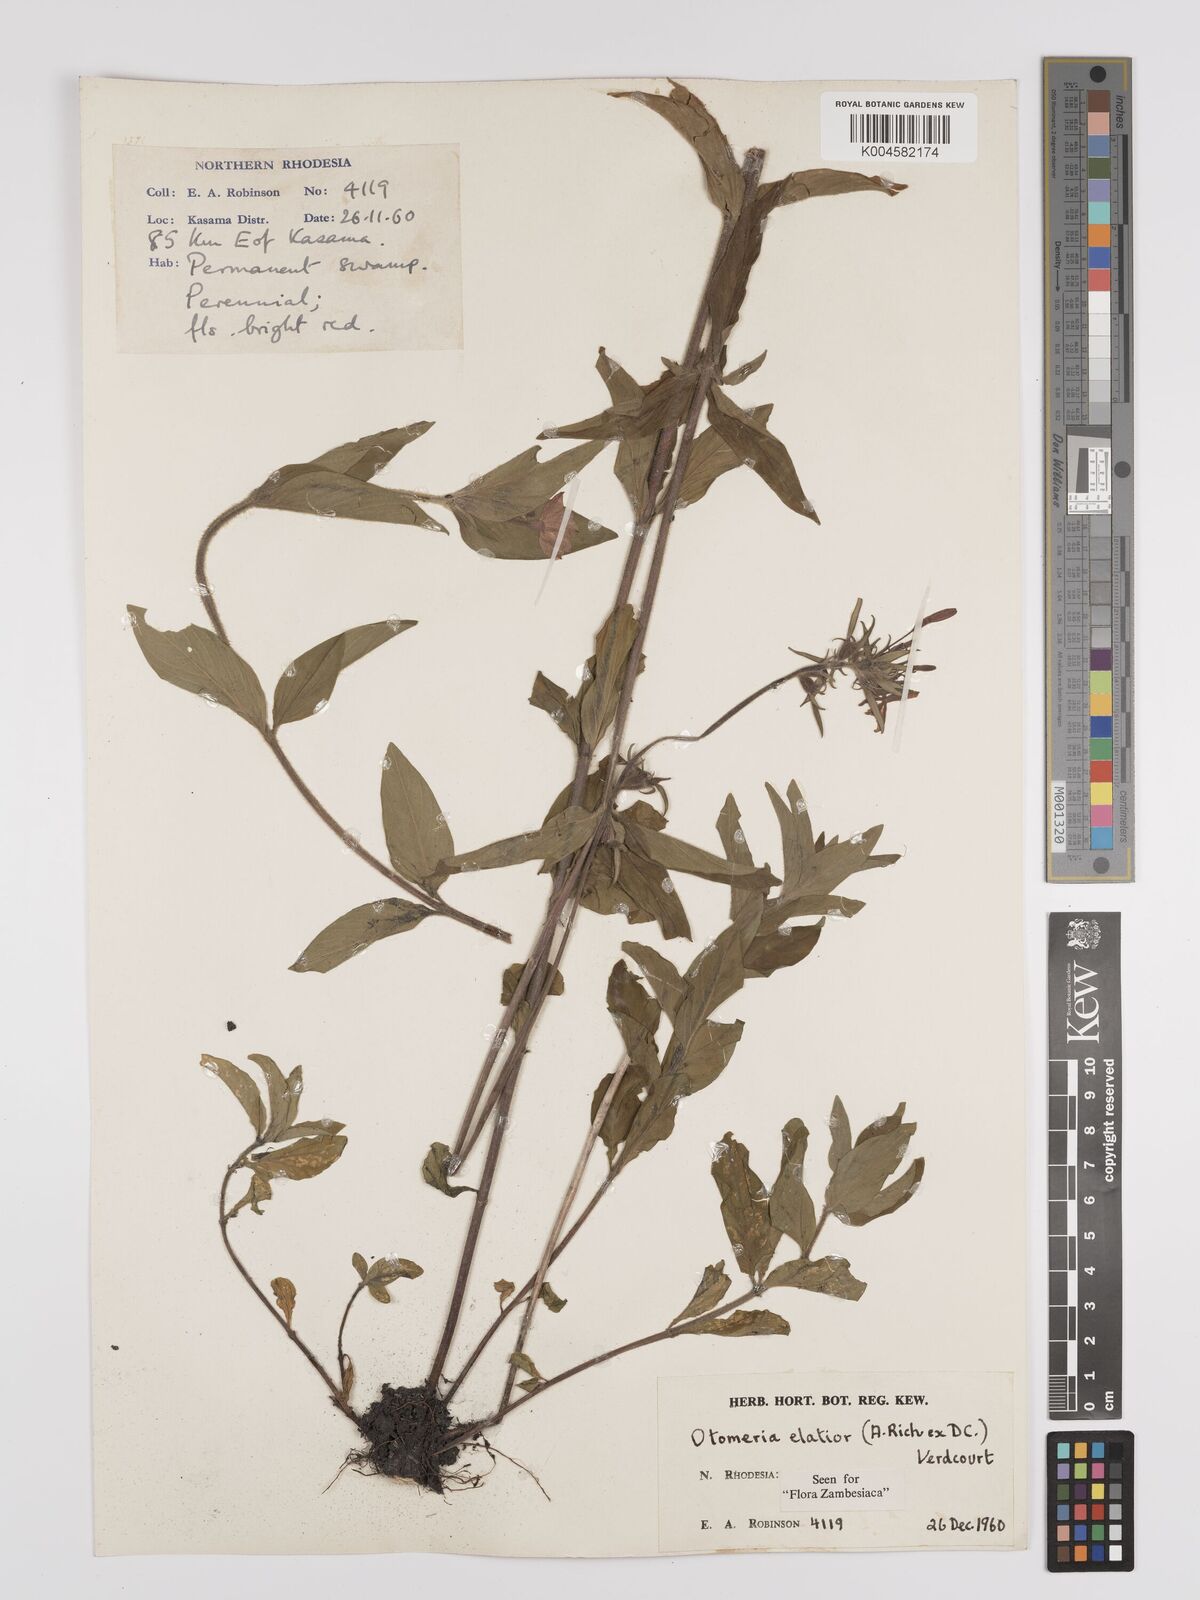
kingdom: Plantae
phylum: Tracheophyta
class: Magnoliopsida
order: Gentianales
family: Rubiaceae
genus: Otomeria
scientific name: Otomeria elatior
